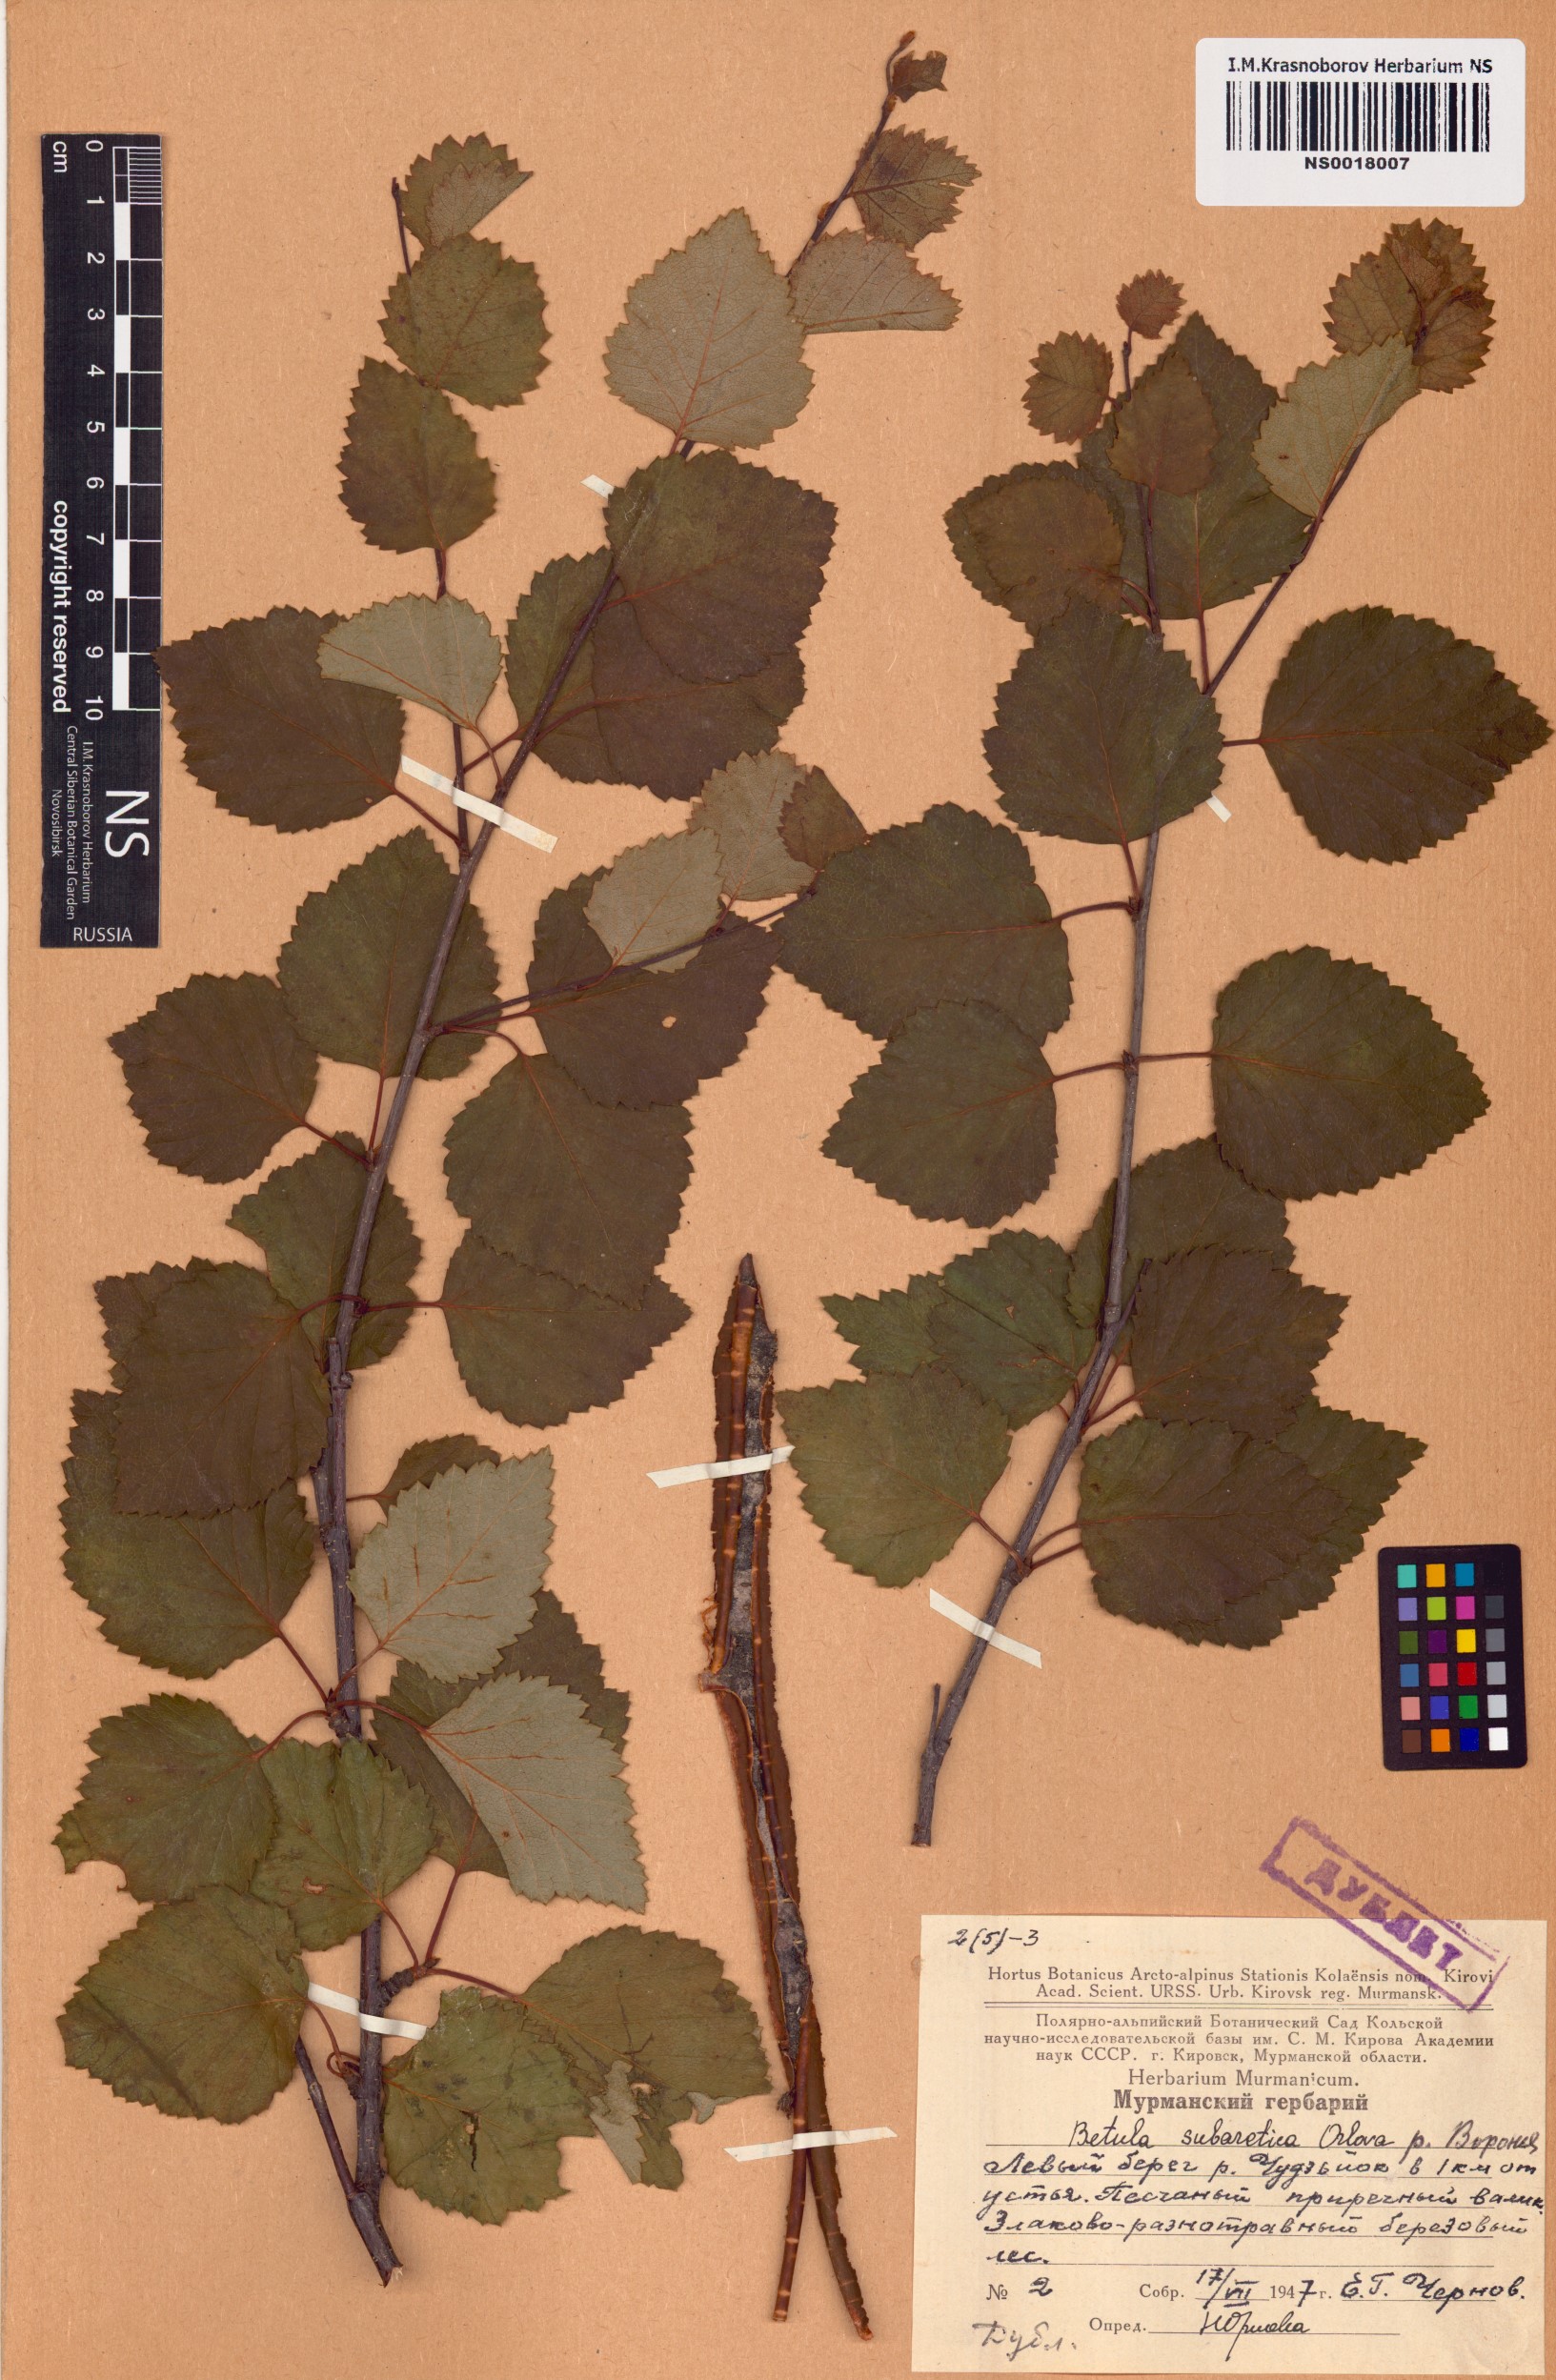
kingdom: Plantae
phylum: Tracheophyta
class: Magnoliopsida
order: Fagales
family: Betulaceae
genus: Betula
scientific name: Betula pubescens
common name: Downy birch
